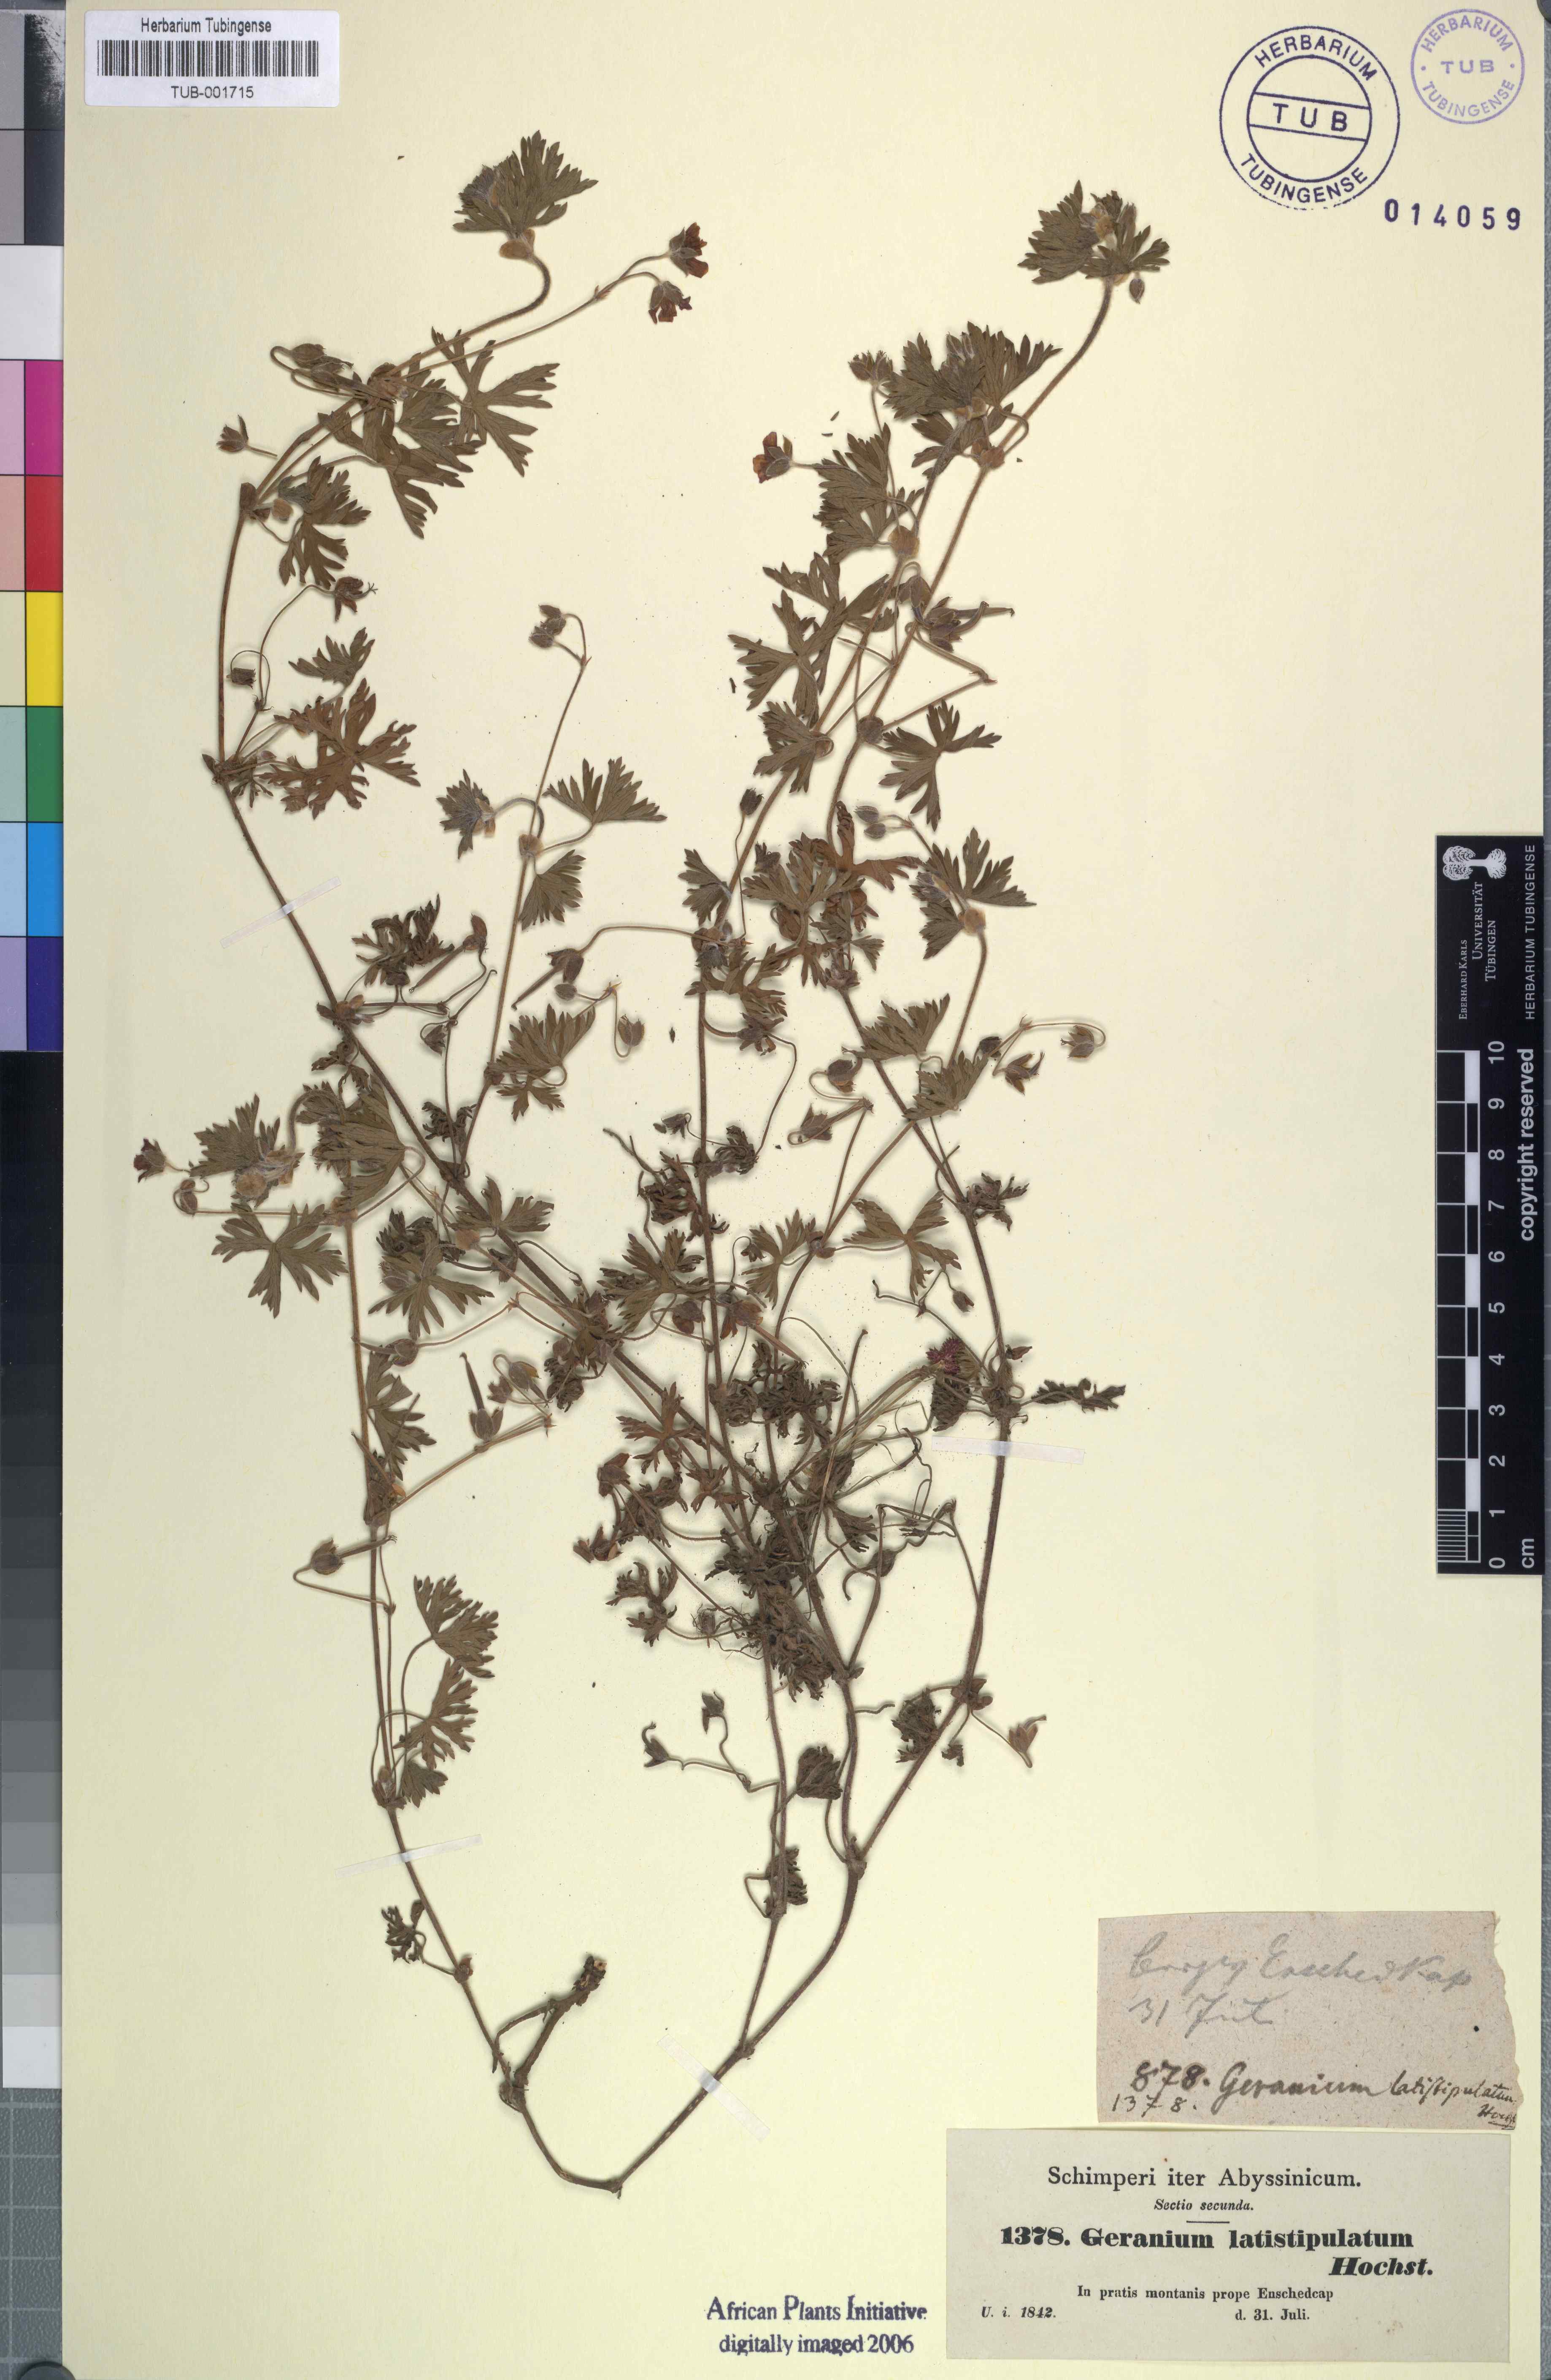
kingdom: Plantae
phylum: Tracheophyta
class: Magnoliopsida
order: Geraniales
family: Geraniaceae
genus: Geranium
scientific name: Geranium arabicum
